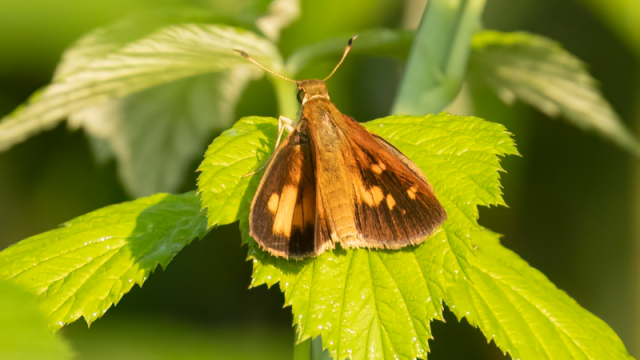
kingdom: Animalia
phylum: Arthropoda
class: Insecta
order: Lepidoptera
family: Hesperiidae
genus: Poanes
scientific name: Poanes viator
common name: Broad-winged Skipper
